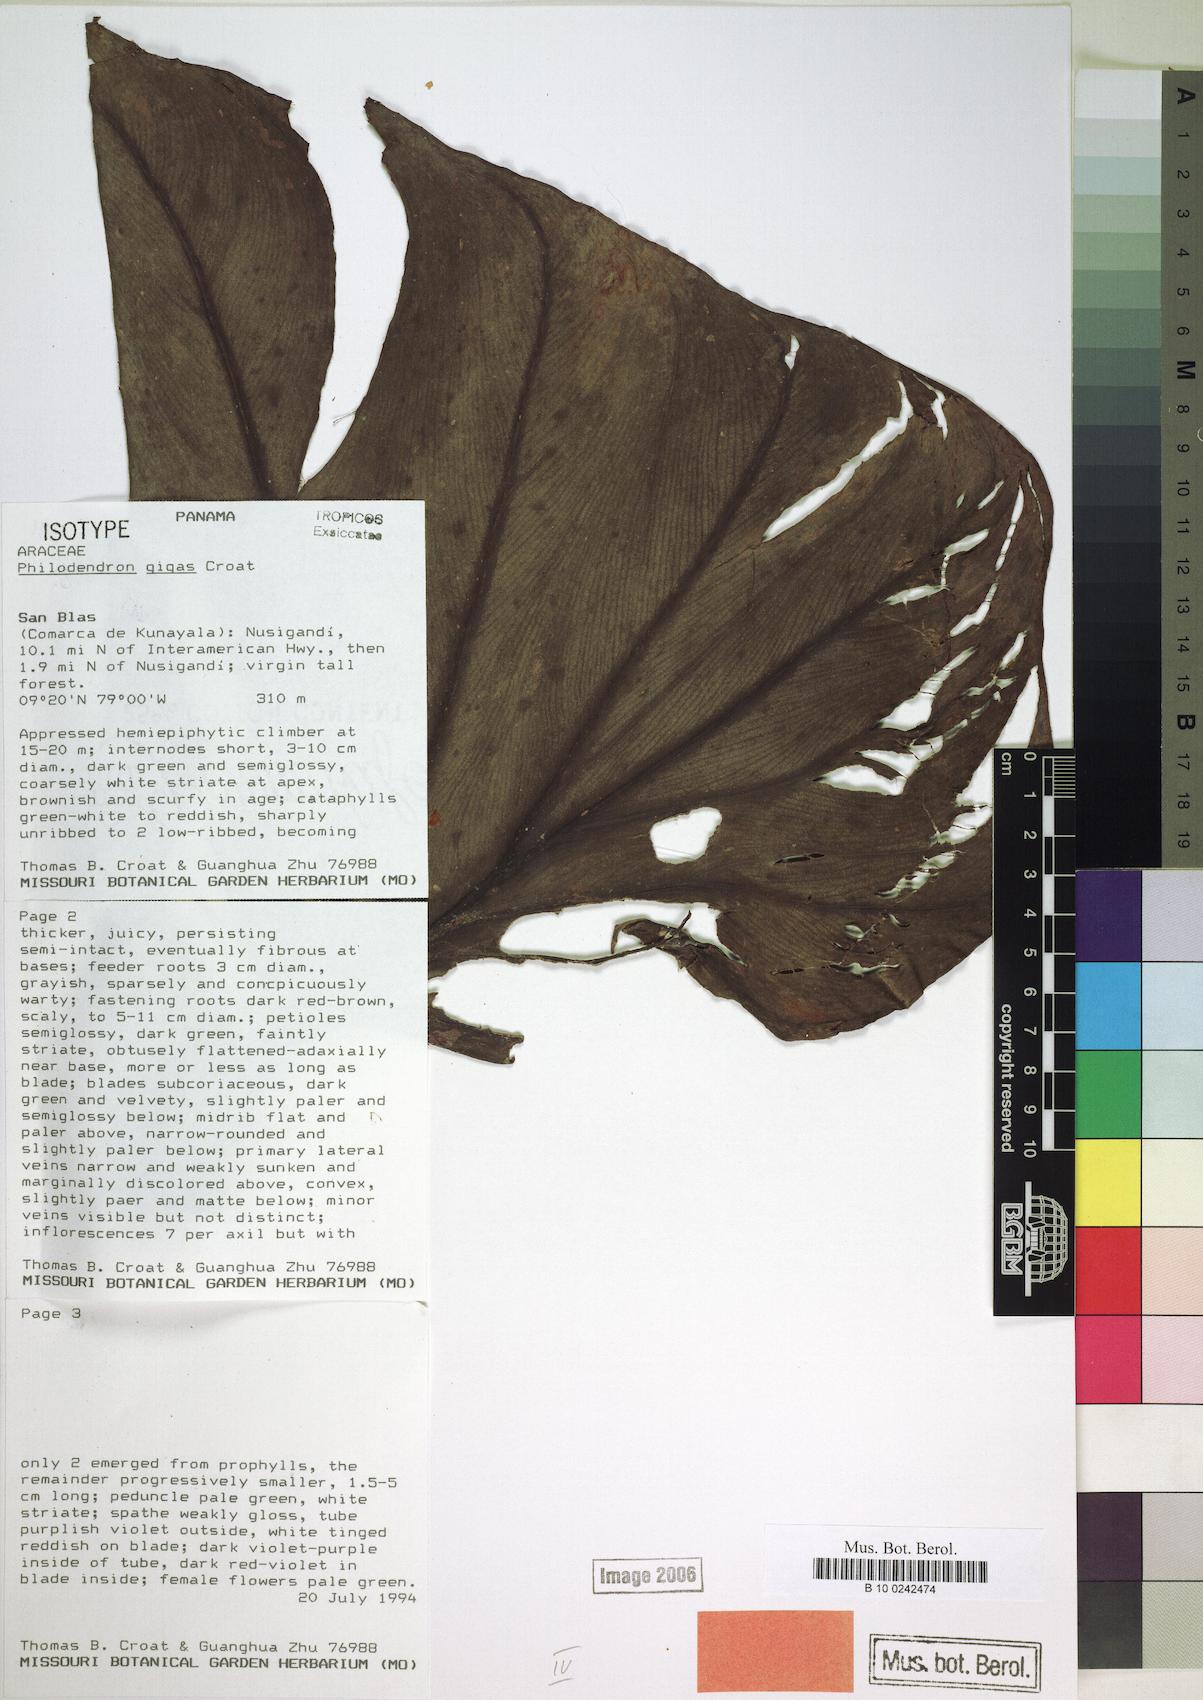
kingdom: Plantae
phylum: Tracheophyta
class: Liliopsida
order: Alismatales
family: Araceae
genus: Philodendron
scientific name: Philodendron gigas
